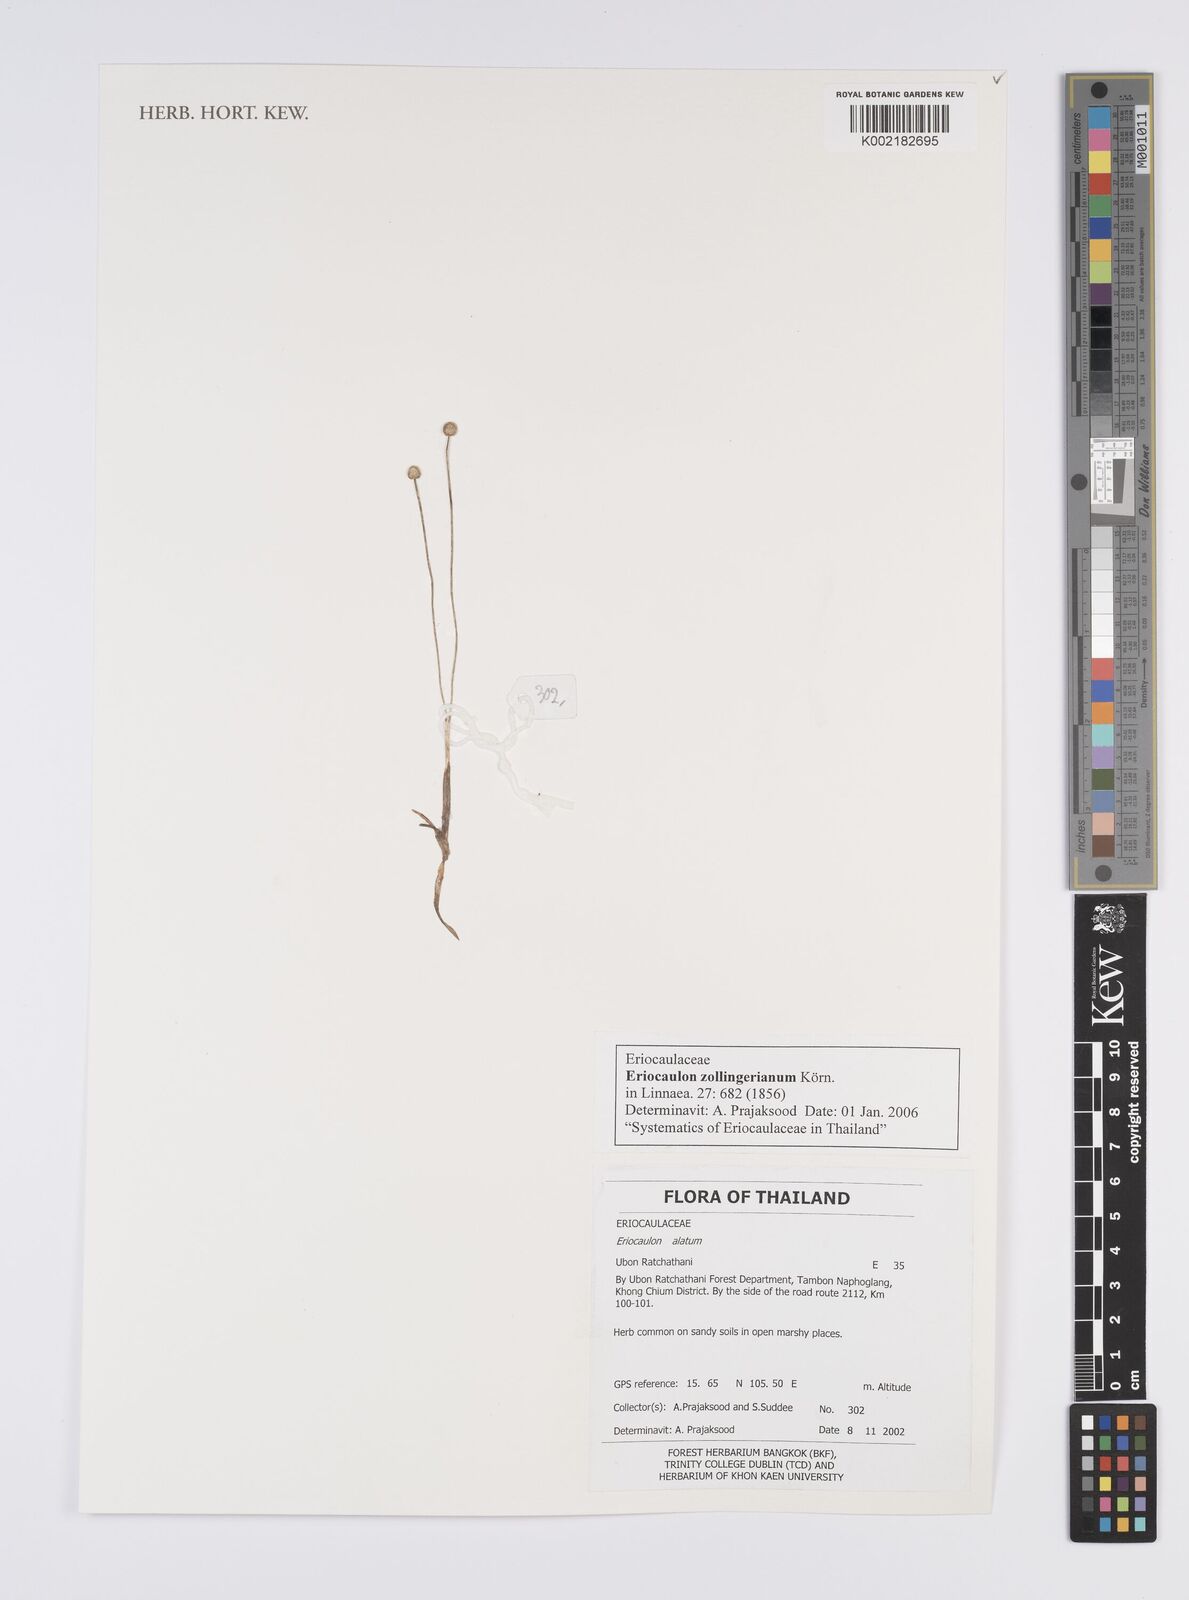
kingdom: Plantae
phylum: Tracheophyta
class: Liliopsida
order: Poales
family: Eriocaulaceae
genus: Eriocaulon
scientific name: Eriocaulon zollingerianum
